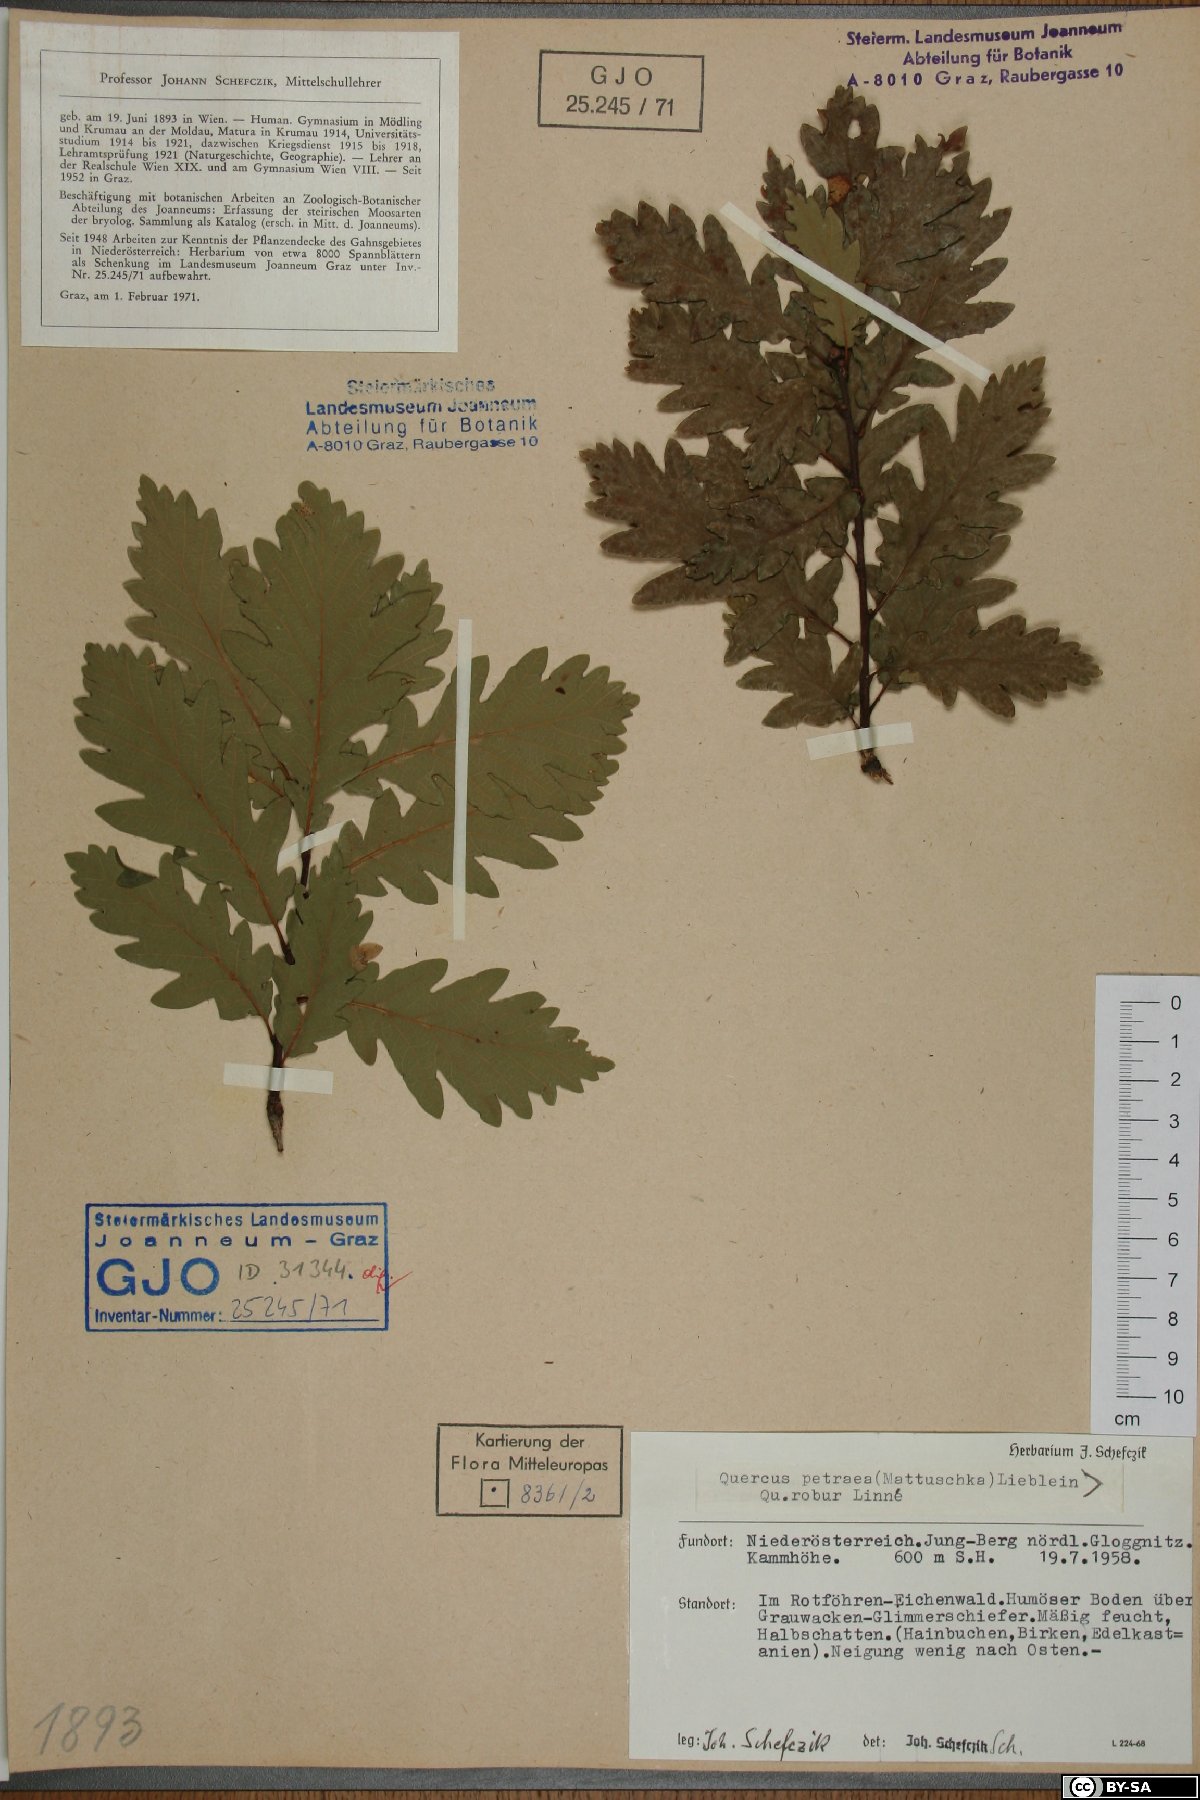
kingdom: Plantae
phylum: Tracheophyta
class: Magnoliopsida
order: Fagales
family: Fagaceae
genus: Quercus
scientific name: Quercus petraea
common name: Sessile oak
